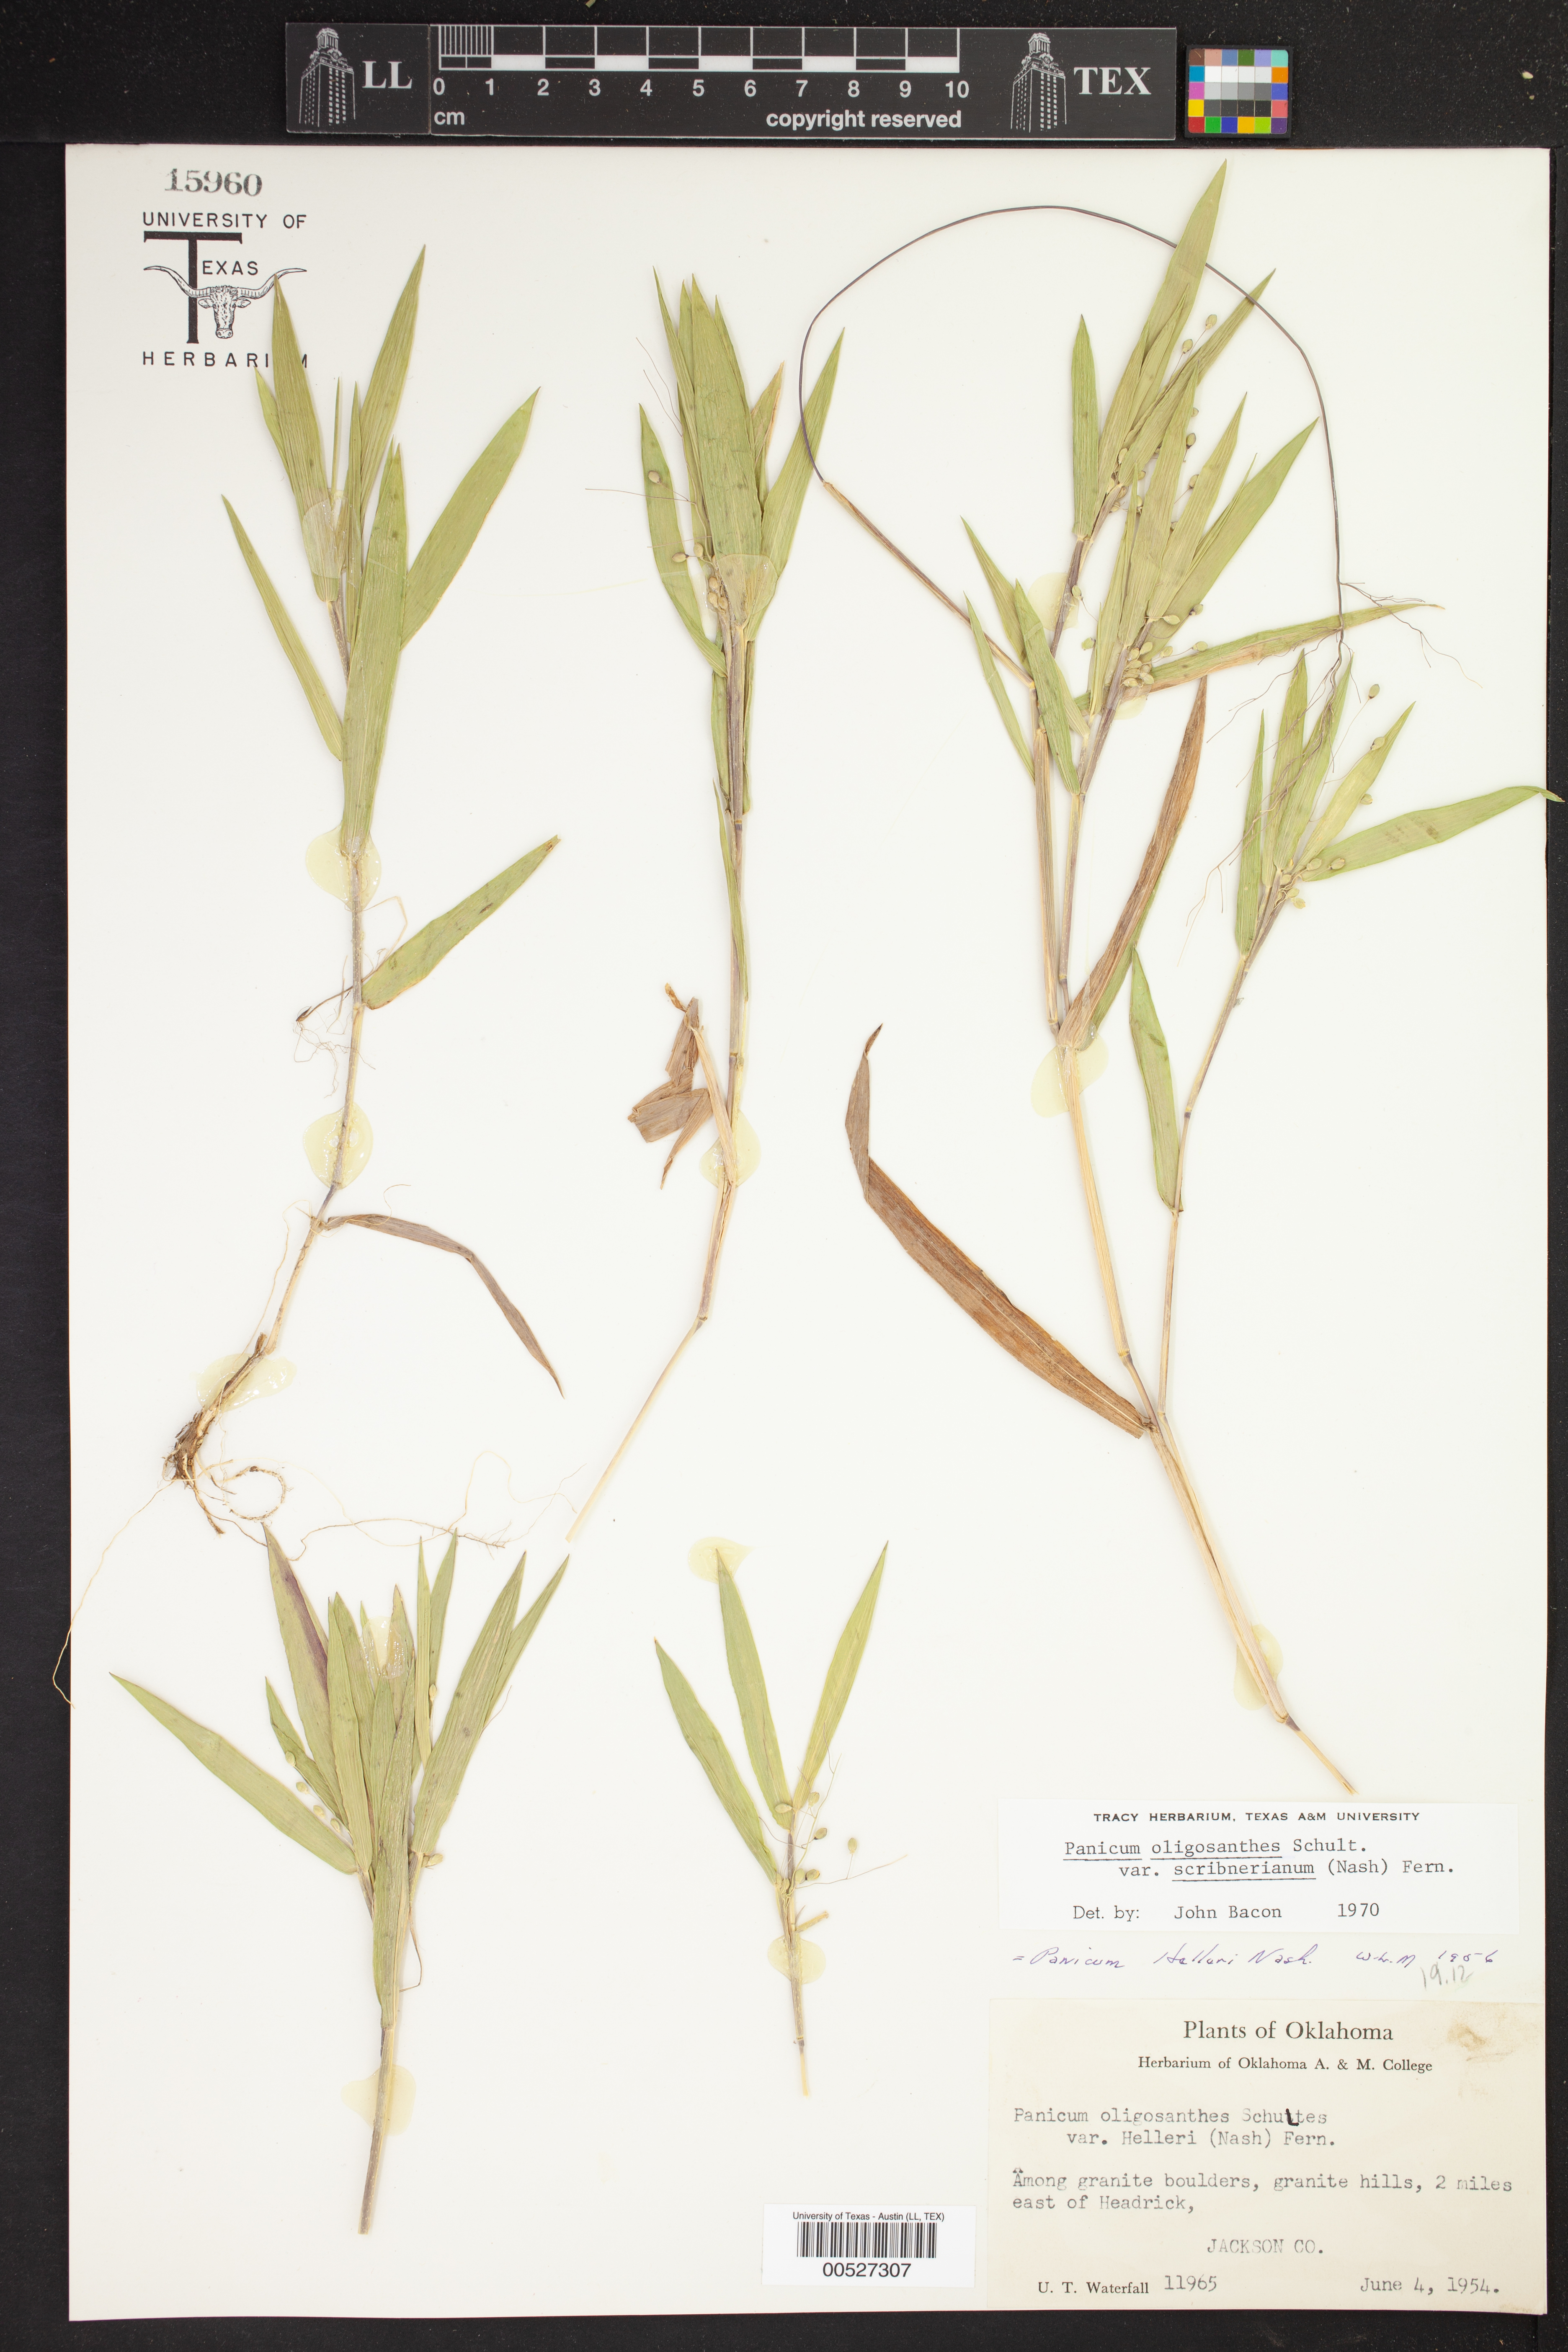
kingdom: Plantae
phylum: Tracheophyta
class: Liliopsida
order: Poales
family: Poaceae
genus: Dichanthelium
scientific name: Dichanthelium scribnerianum
